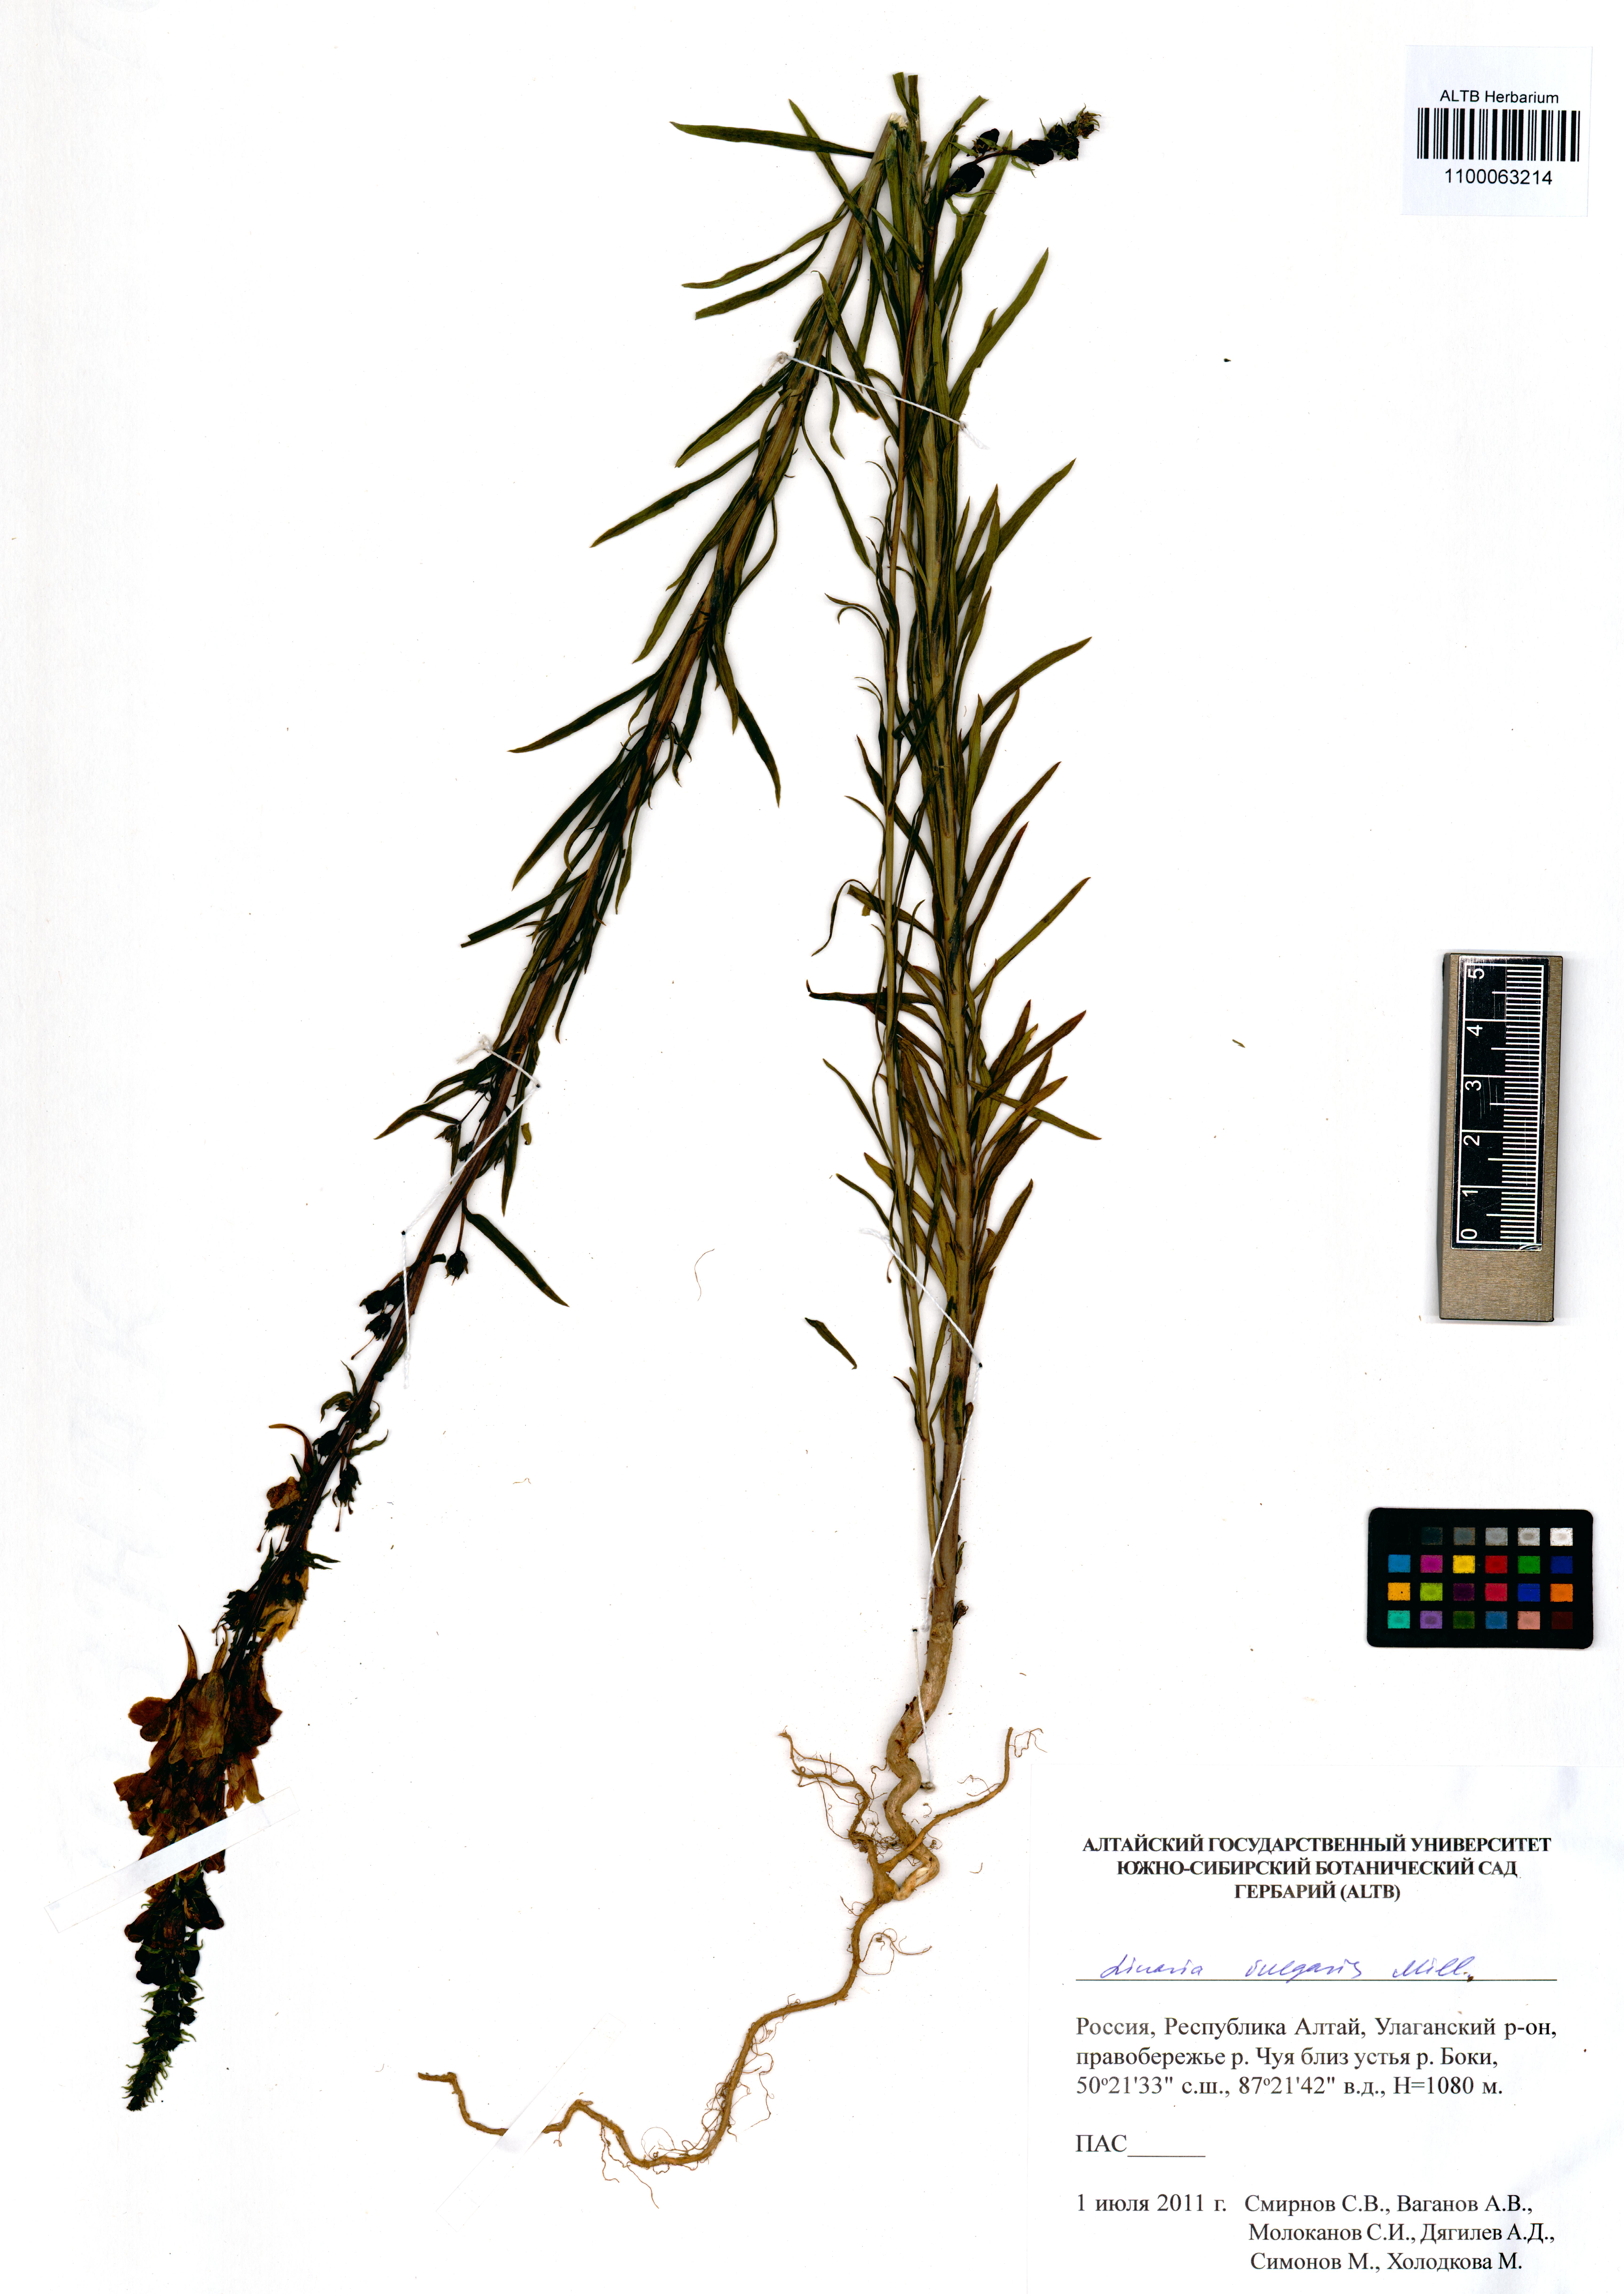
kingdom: Plantae
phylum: Tracheophyta
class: Magnoliopsida
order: Lamiales
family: Plantaginaceae
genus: Linaria
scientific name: Linaria vulgaris
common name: Butter and eggs
